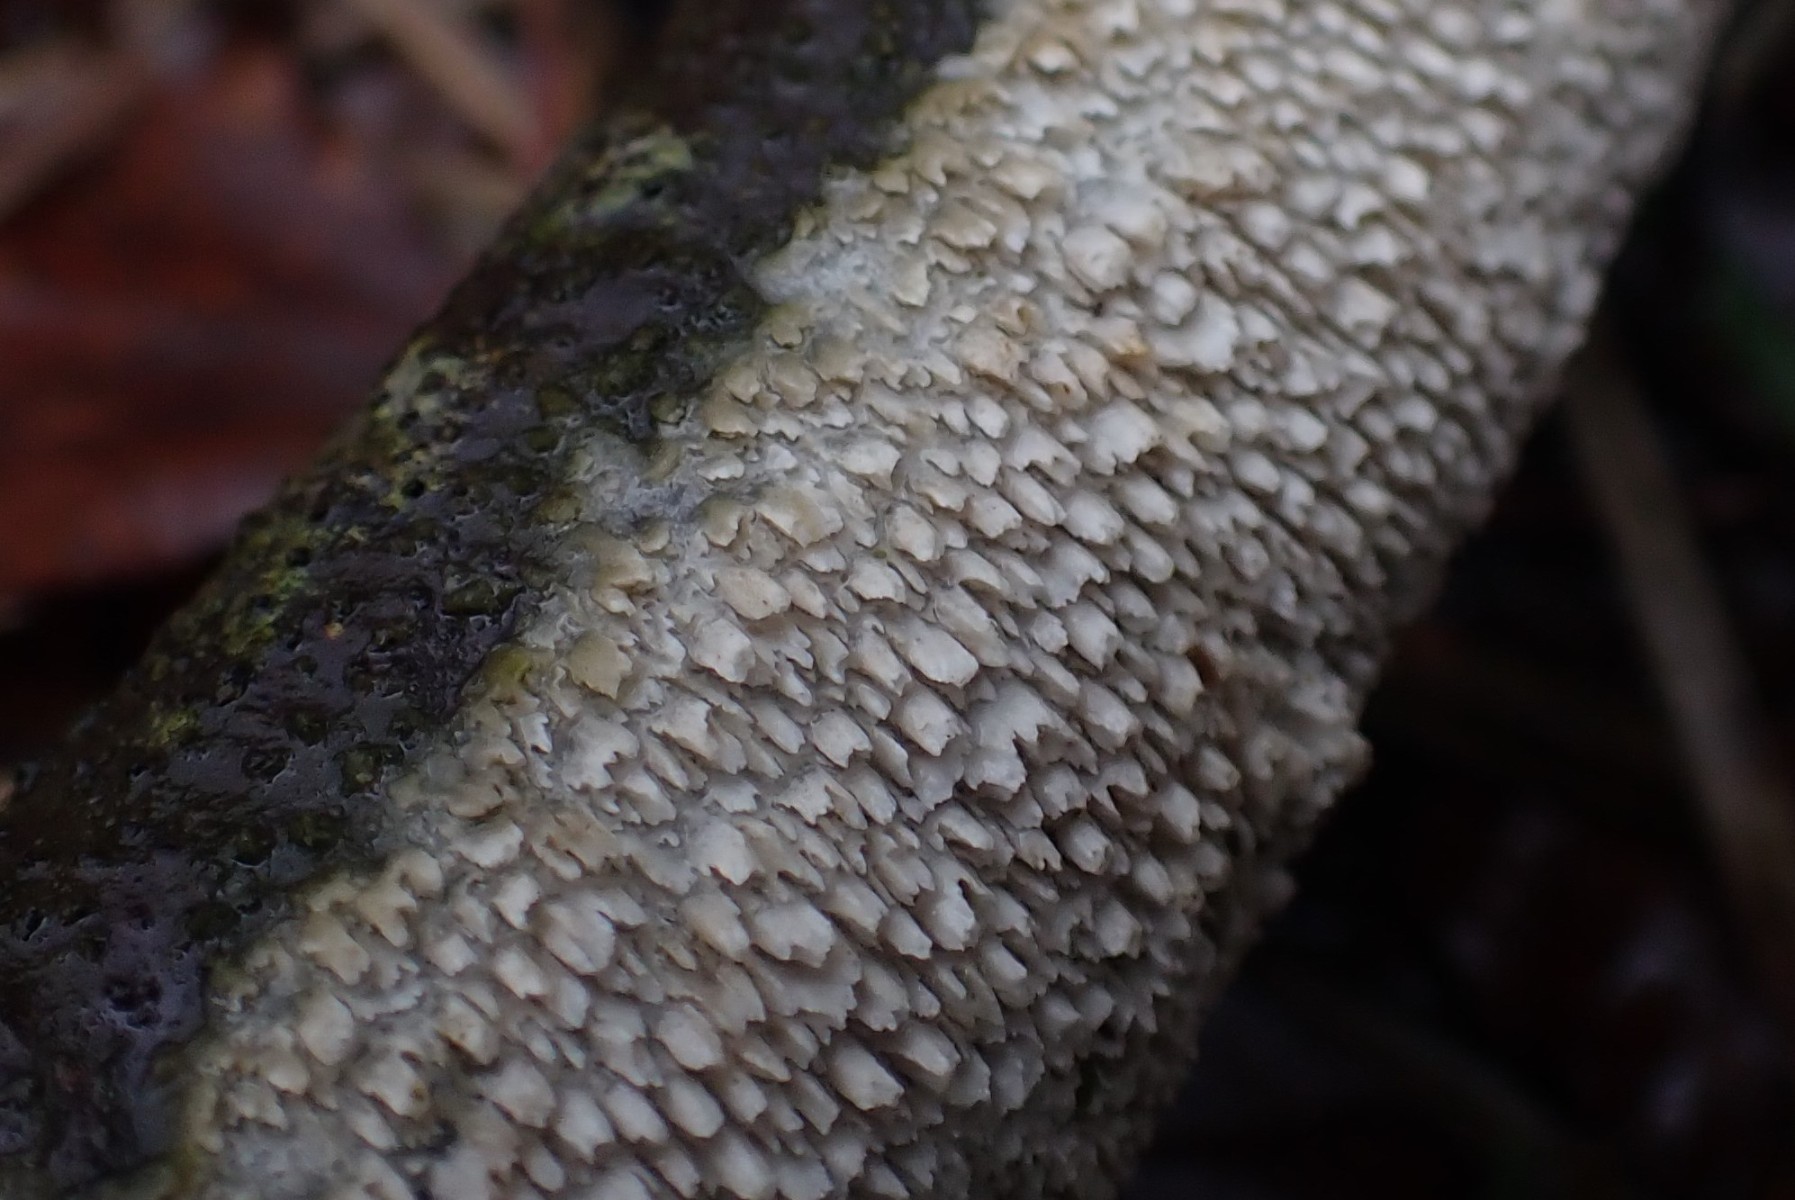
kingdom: Fungi
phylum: Basidiomycota
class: Agaricomycetes
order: Hymenochaetales
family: Schizoporaceae
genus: Schizopora
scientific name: Schizopora paradoxa
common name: hvid tandsvamp
